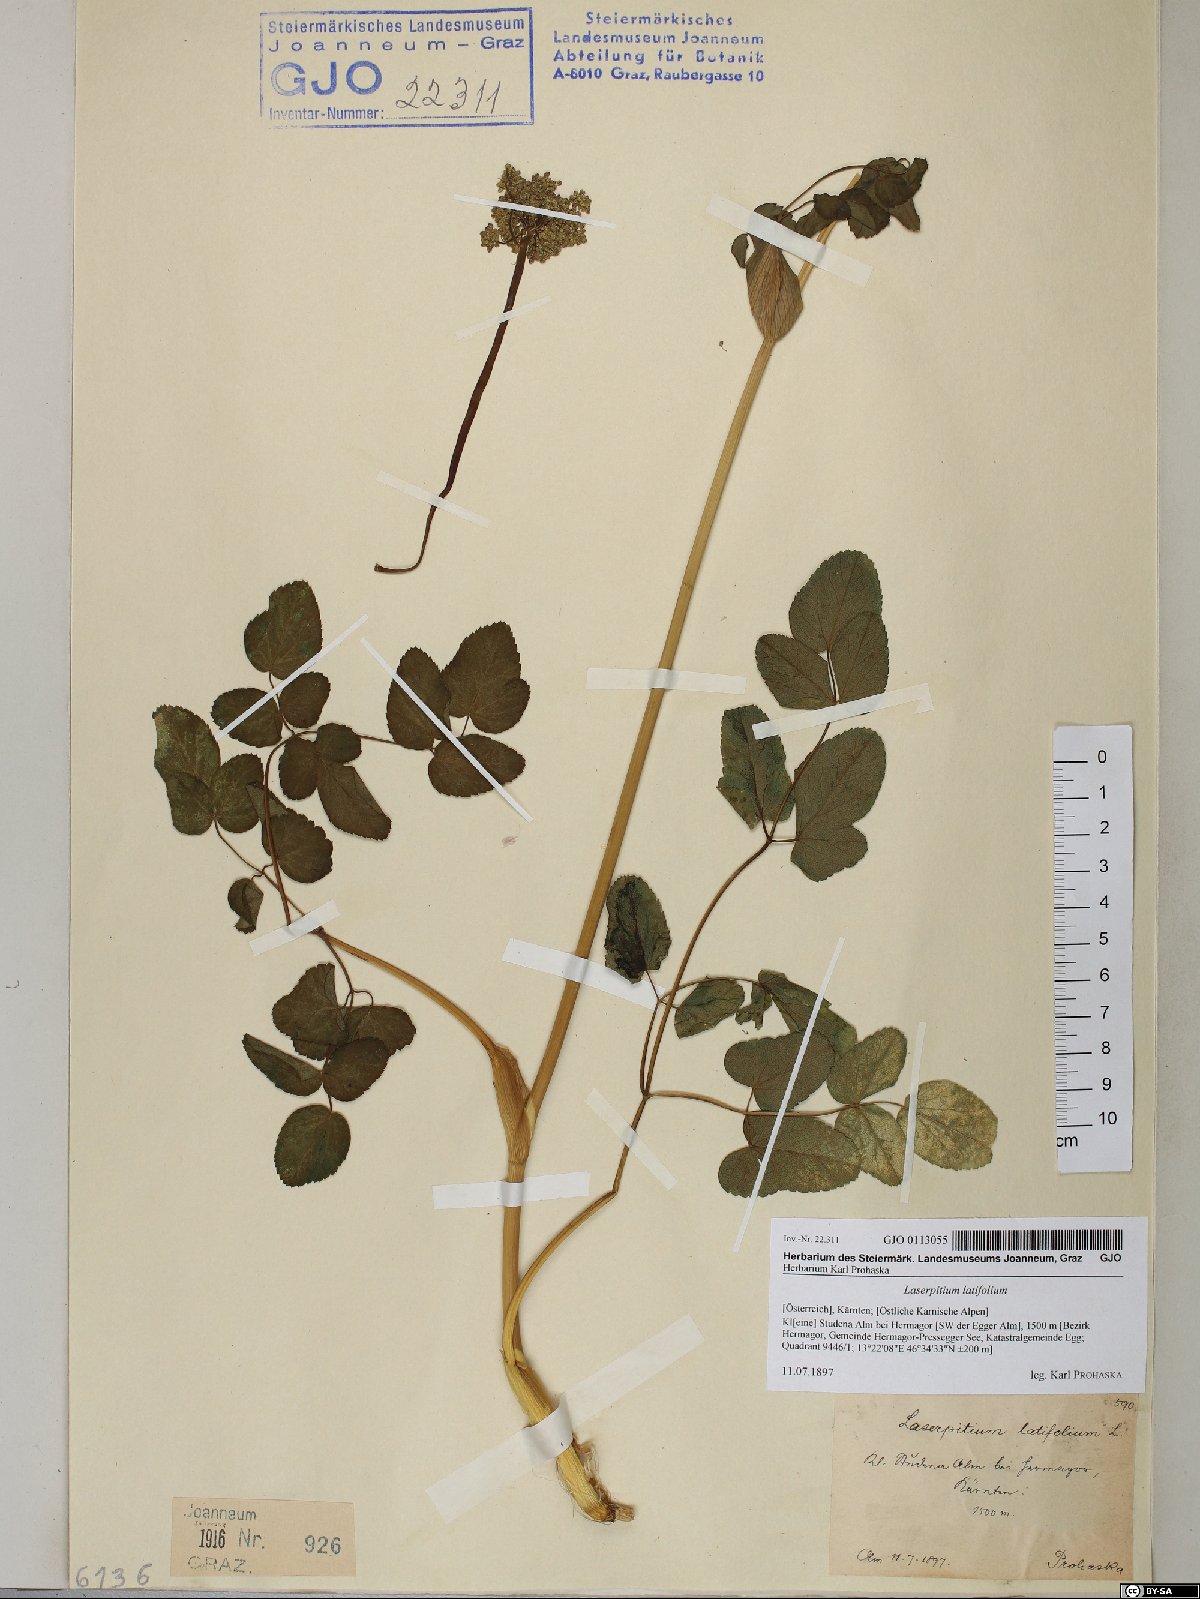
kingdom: Plantae
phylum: Tracheophyta
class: Magnoliopsida
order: Apiales
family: Apiaceae
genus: Laserpitium
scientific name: Laserpitium latifolium
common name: Broadleaf sermountain
